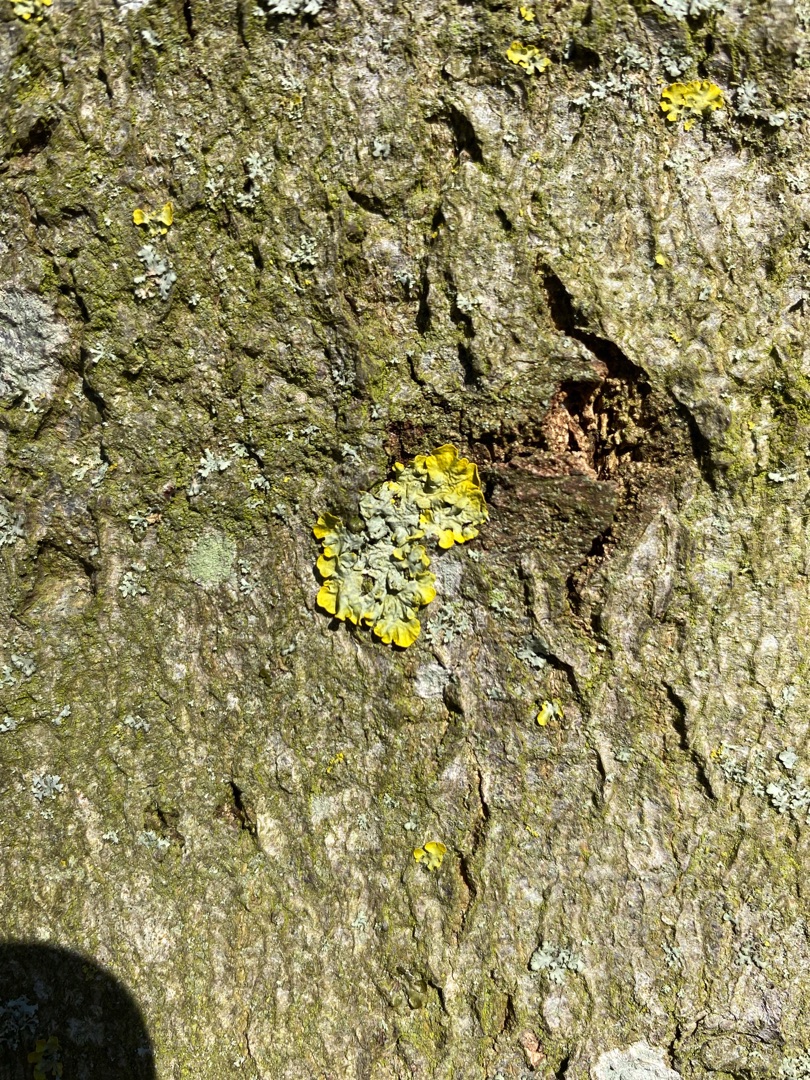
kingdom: Fungi
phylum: Ascomycota
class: Lecanoromycetes
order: Teloschistales
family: Teloschistaceae
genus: Xanthoria
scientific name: Xanthoria parietina
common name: Almindelig væggelav
